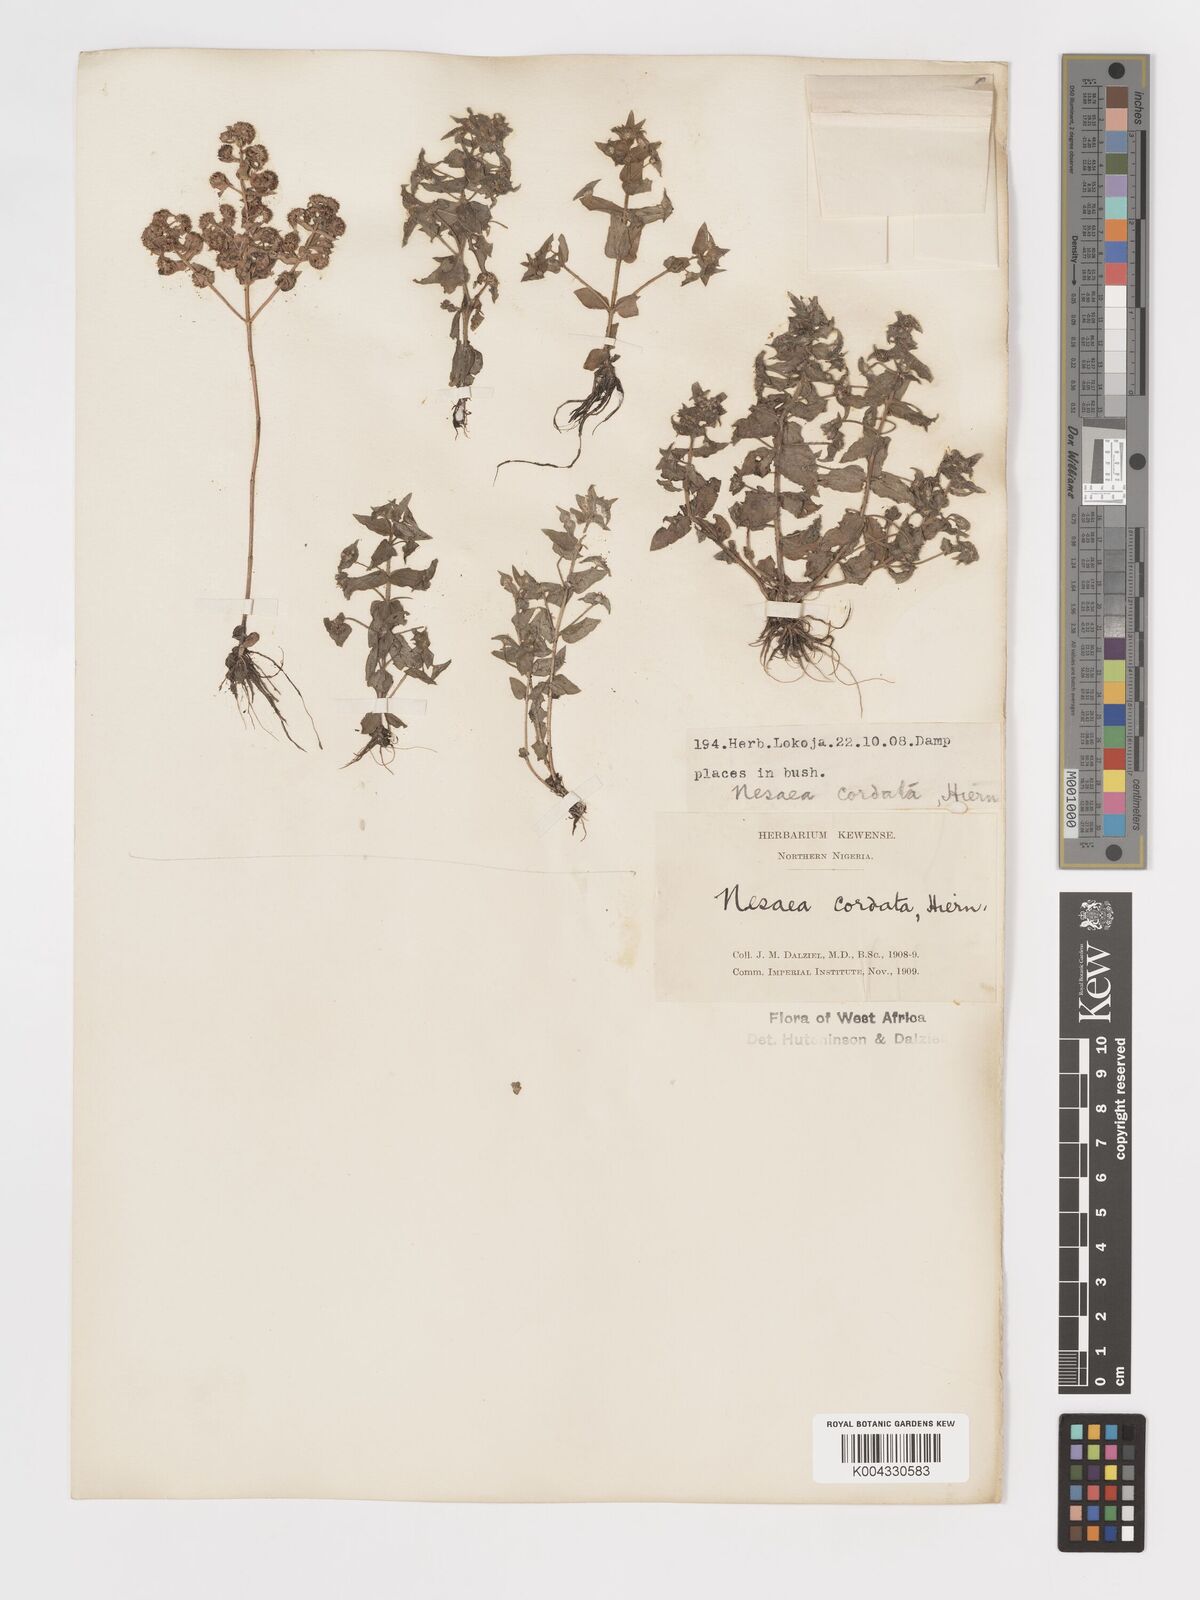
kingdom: Plantae
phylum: Tracheophyta
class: Magnoliopsida
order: Myrtales
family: Lythraceae
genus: Nesaea
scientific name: Nesaea
